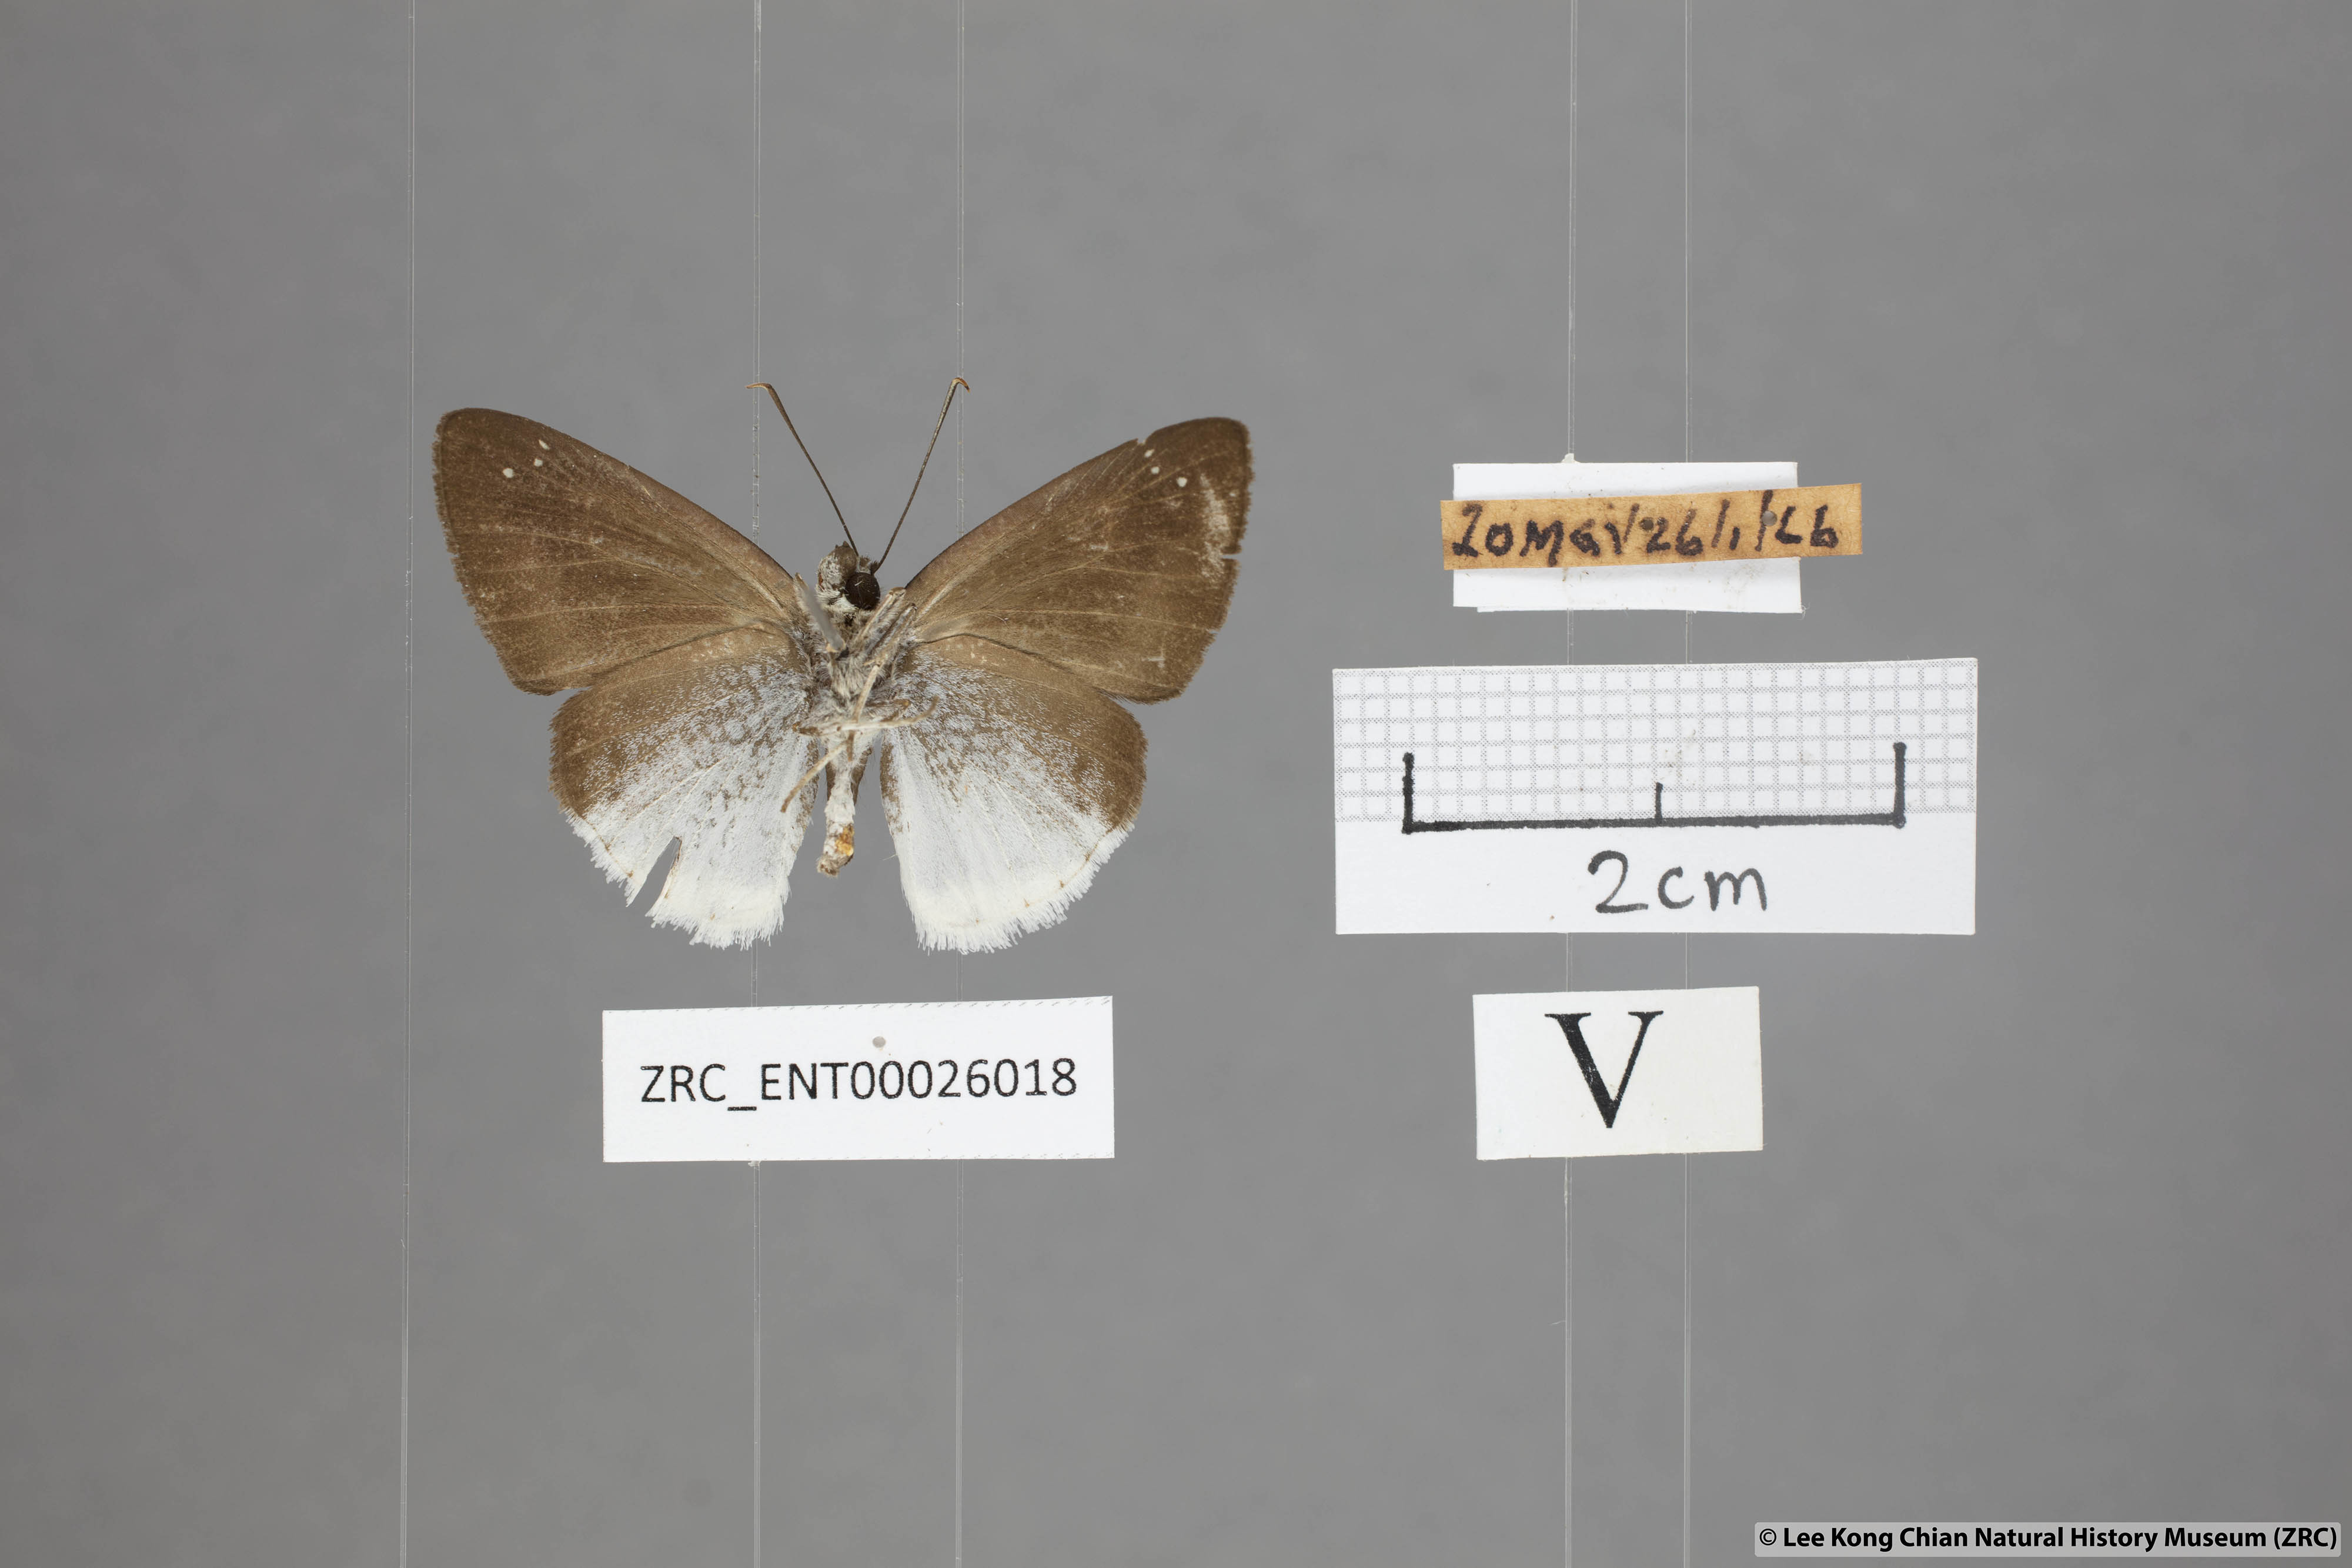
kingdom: Animalia
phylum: Arthropoda
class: Insecta
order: Lepidoptera
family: Hesperiidae
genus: Tagiades
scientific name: Tagiades lavata
